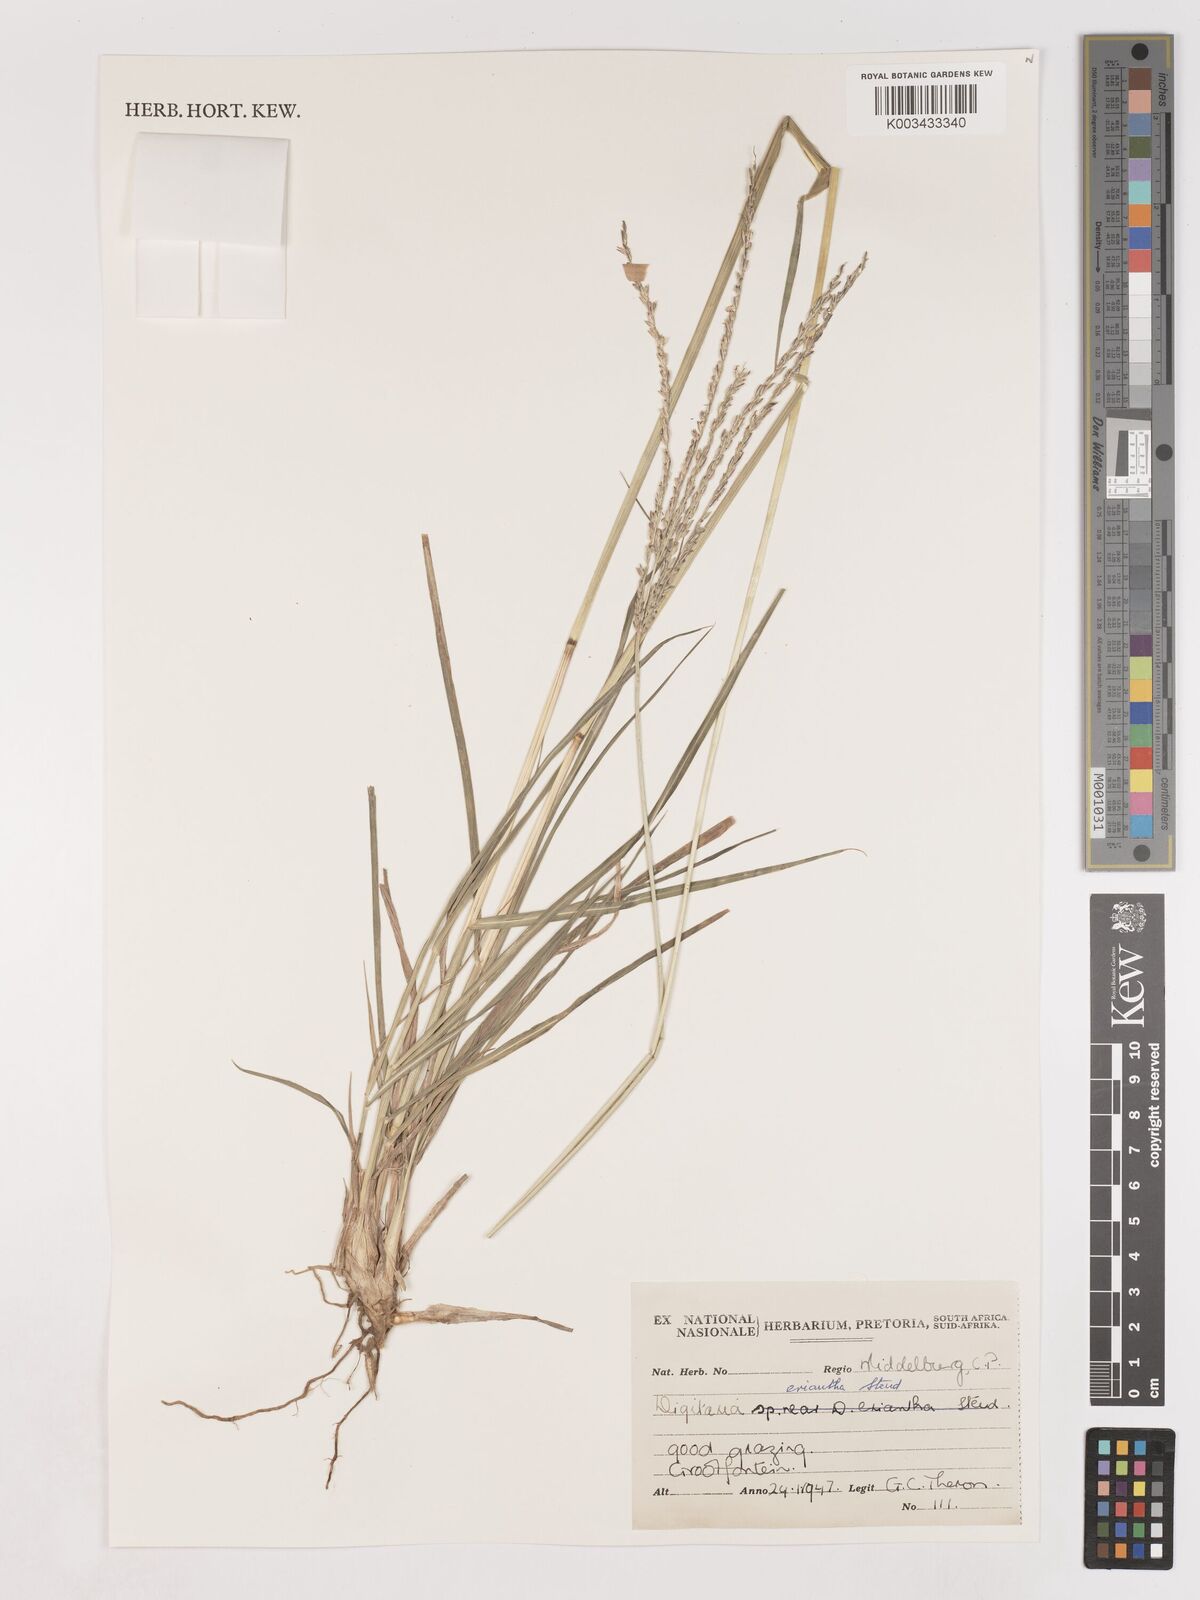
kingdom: Plantae
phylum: Tracheophyta
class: Liliopsida
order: Poales
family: Poaceae
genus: Digitaria
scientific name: Digitaria eriantha
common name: Digitgrass
